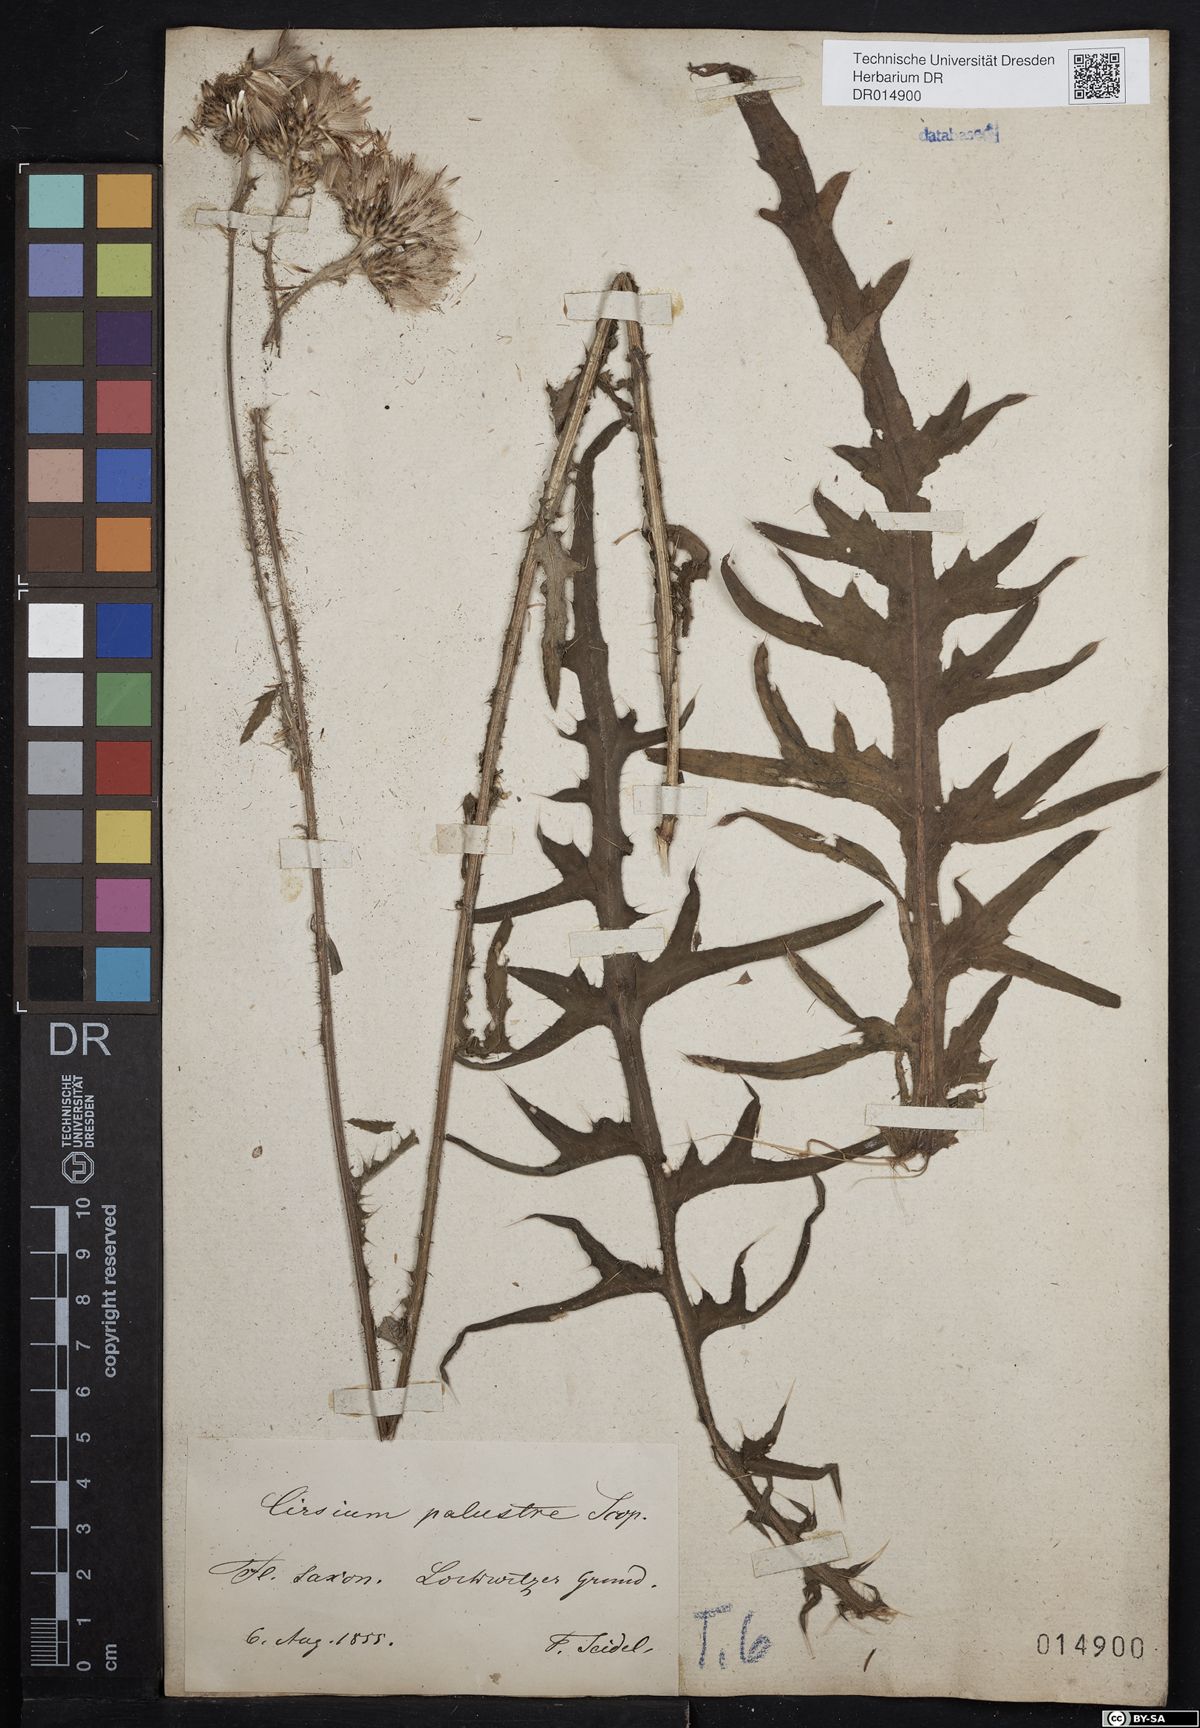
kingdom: Plantae
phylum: Tracheophyta
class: Magnoliopsida
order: Asterales
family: Asteraceae
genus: Cirsium
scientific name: Cirsium palustre
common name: Marsh thistle
